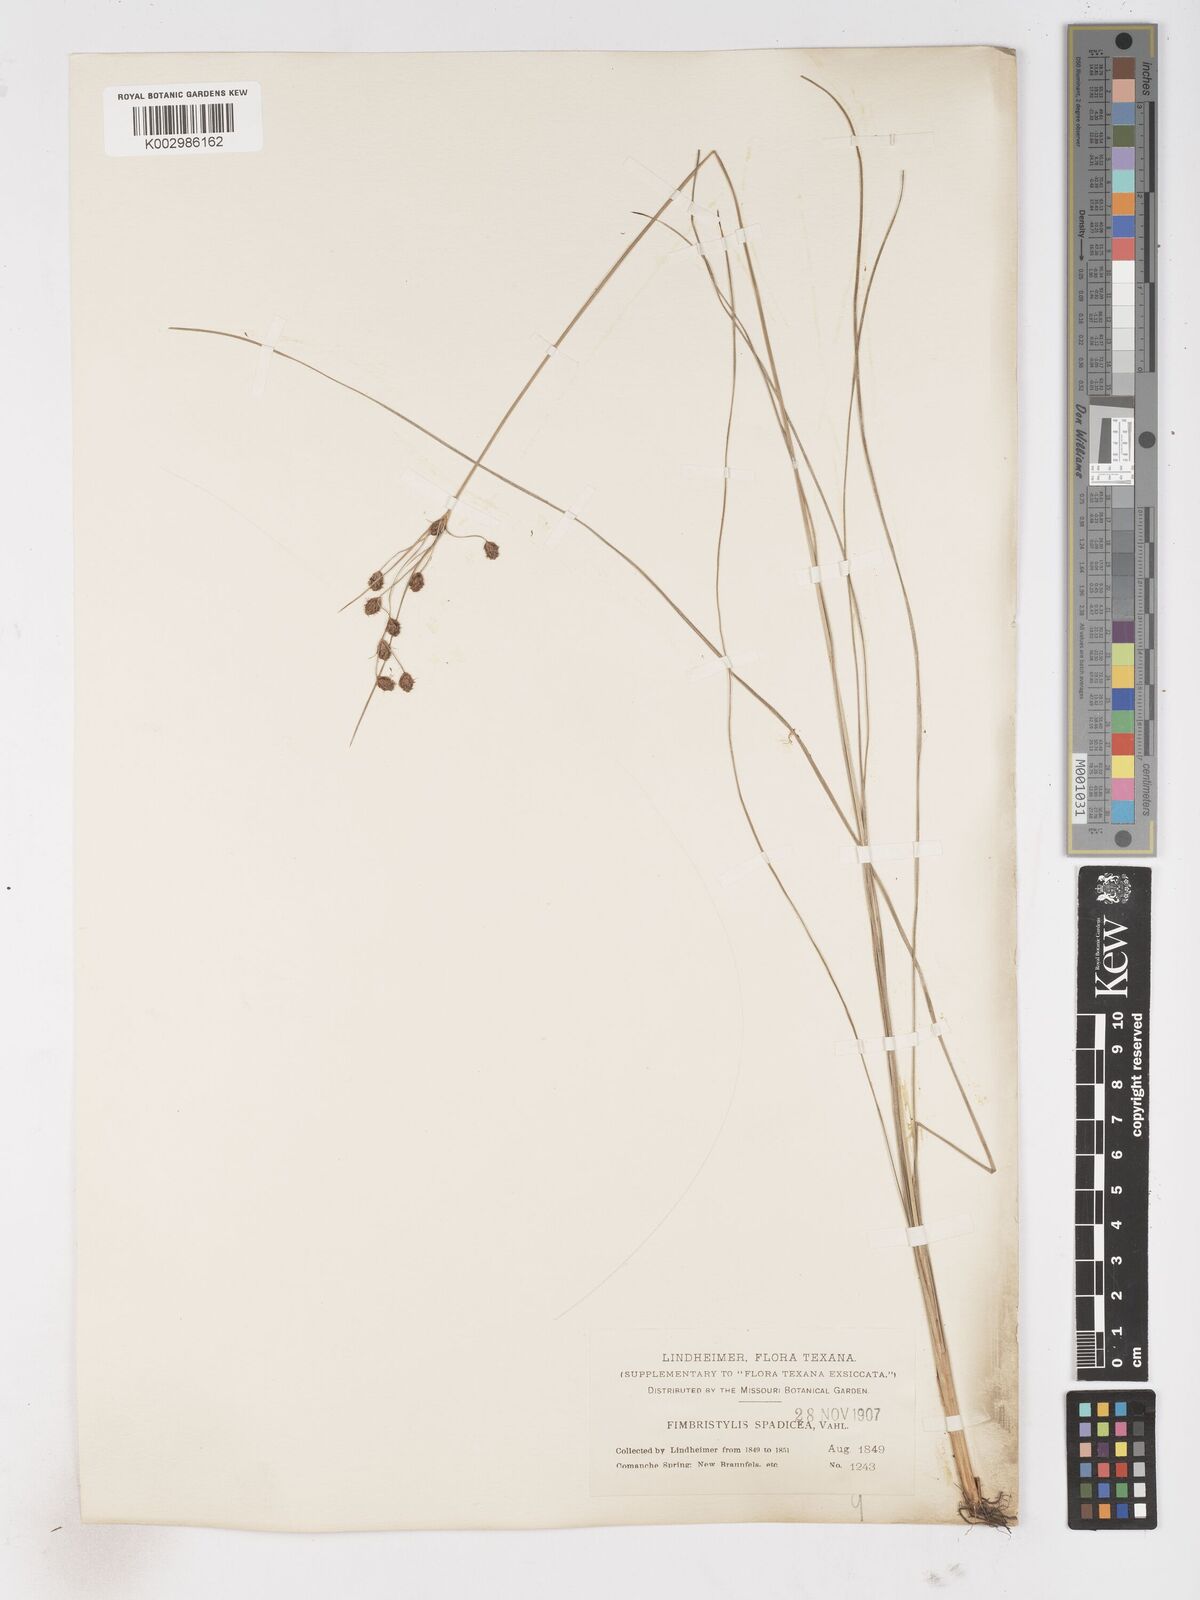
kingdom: Plantae
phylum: Tracheophyta
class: Liliopsida
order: Poales
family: Cyperaceae
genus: Fimbristylis
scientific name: Fimbristylis spadicea
